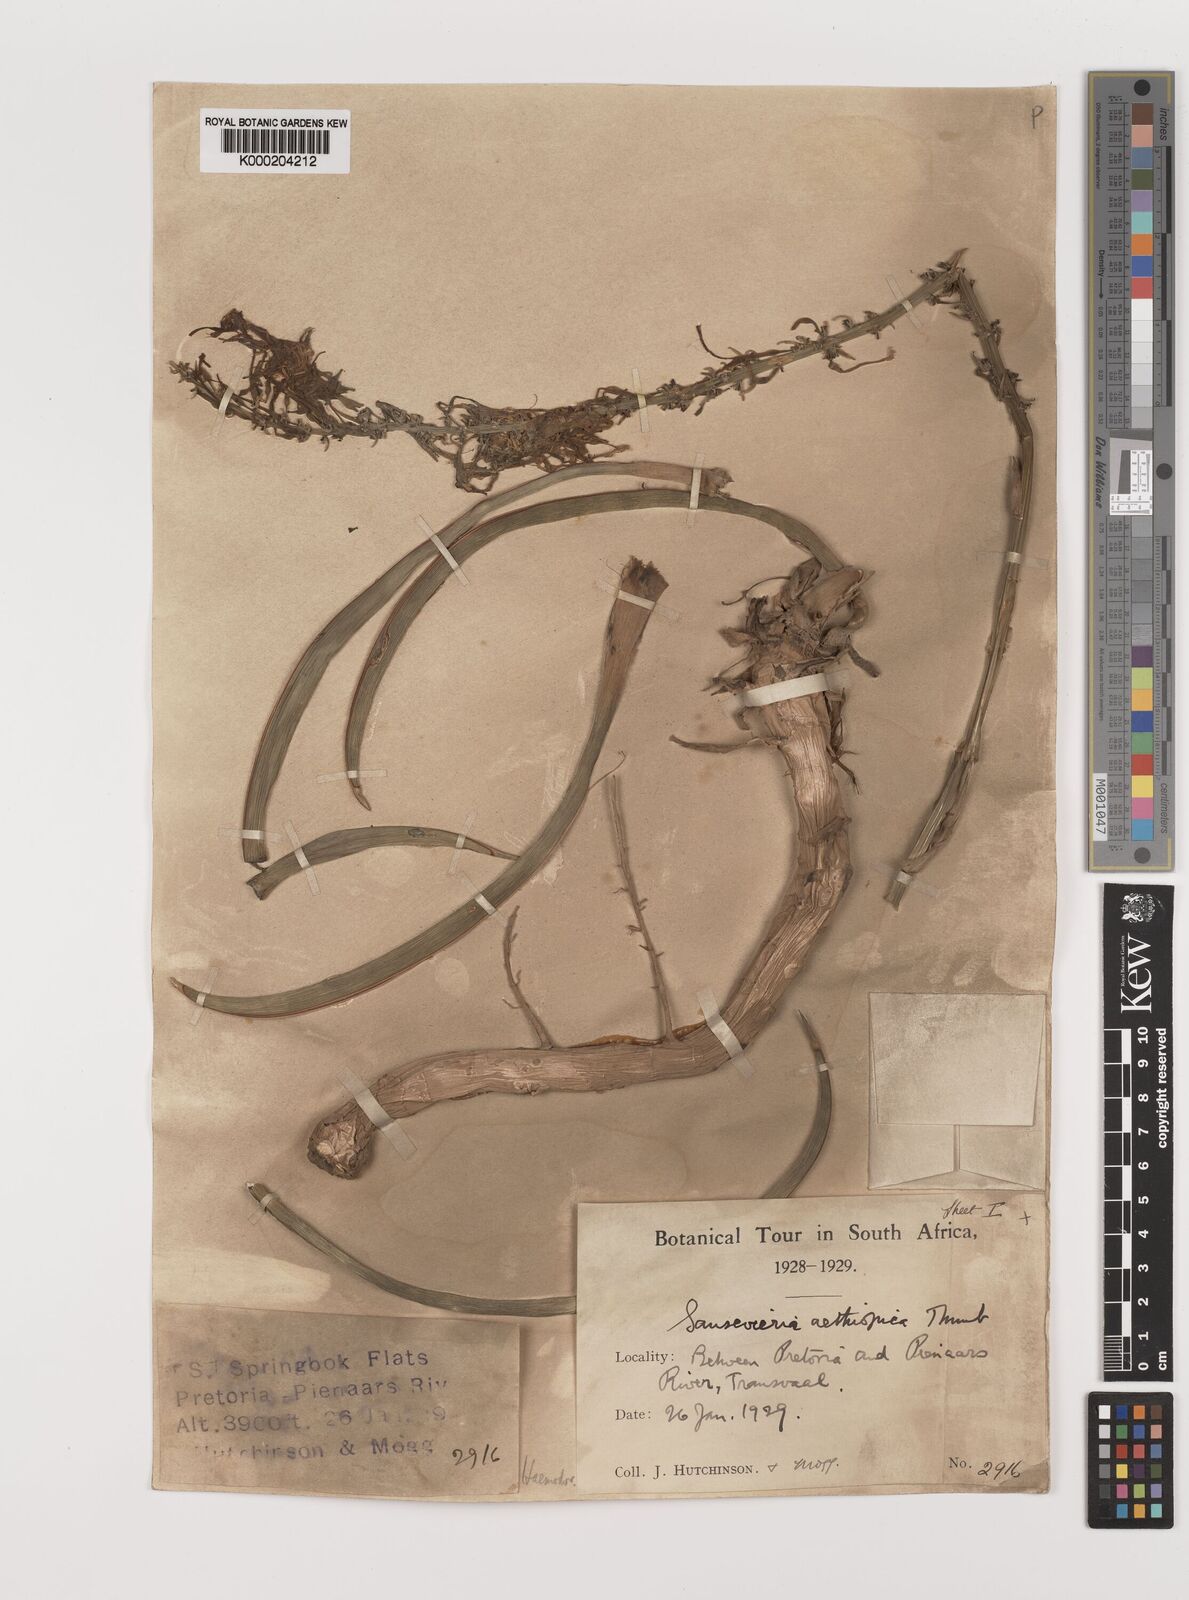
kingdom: Plantae
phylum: Tracheophyta
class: Liliopsida
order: Asparagales
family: Asparagaceae
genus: Dracaena
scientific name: Dracaena
